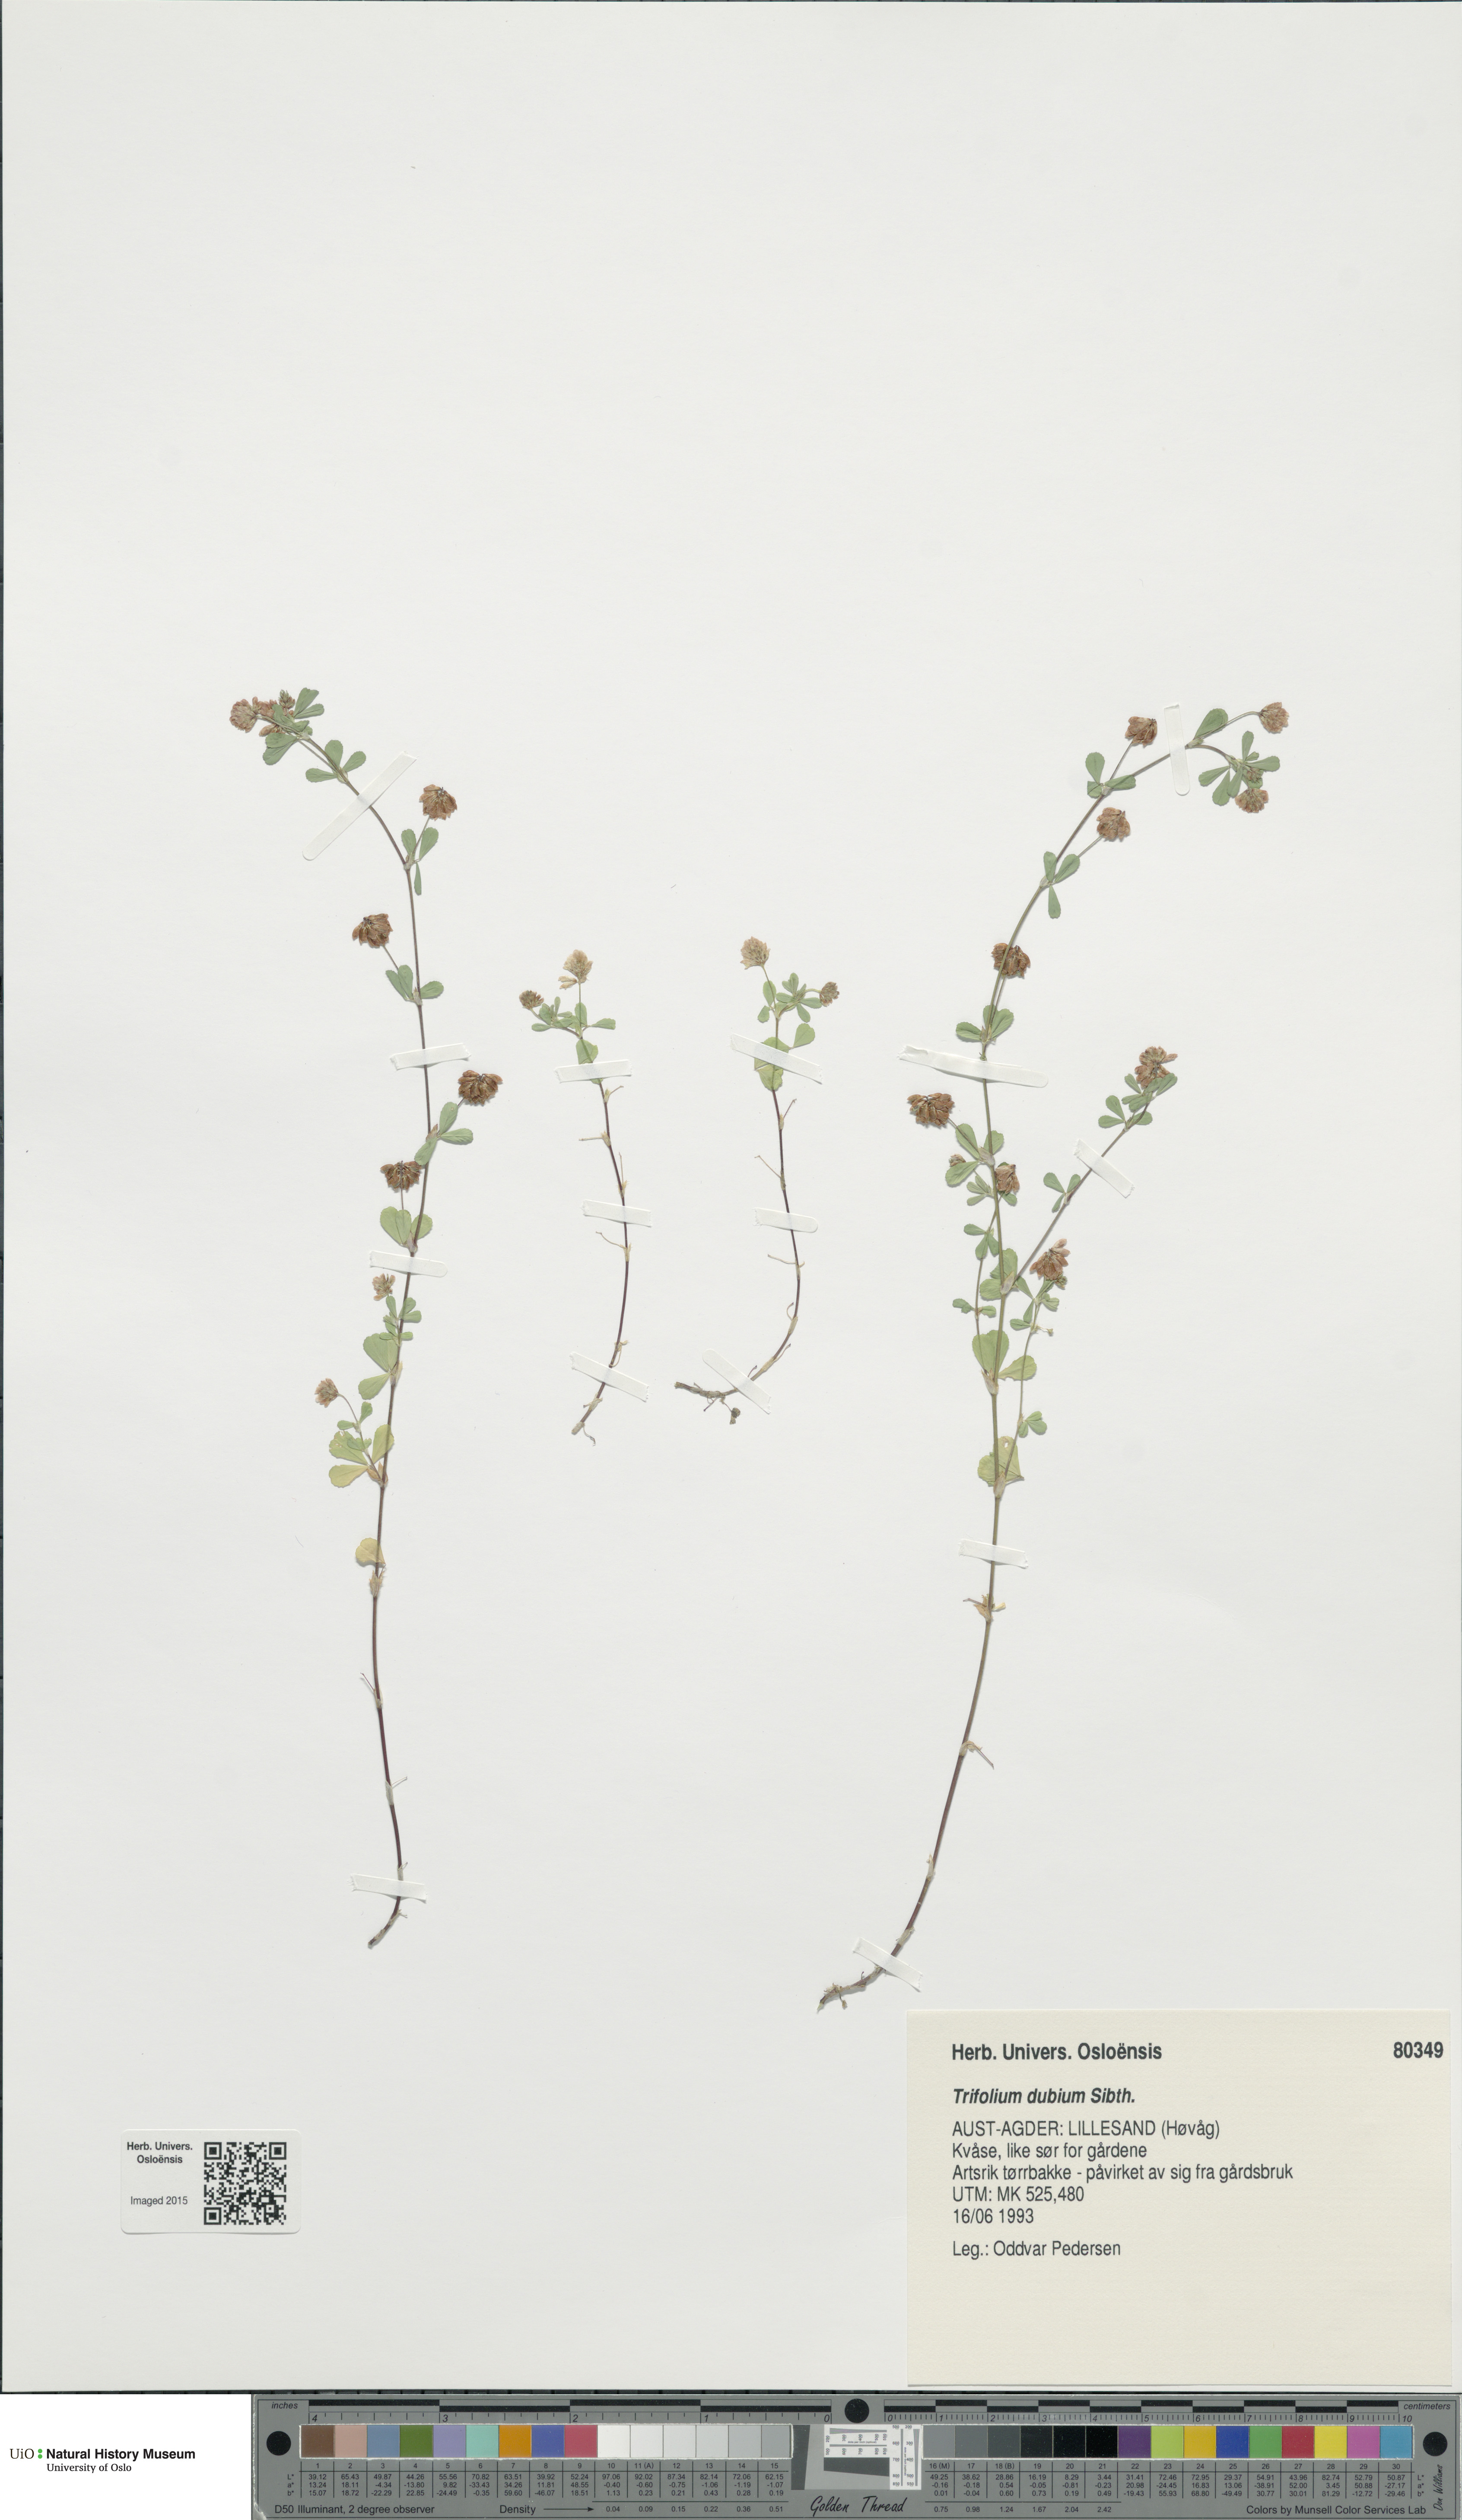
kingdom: Plantae
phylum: Tracheophyta
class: Magnoliopsida
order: Fabales
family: Fabaceae
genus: Trifolium
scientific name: Trifolium dubium
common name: Suckling clover
